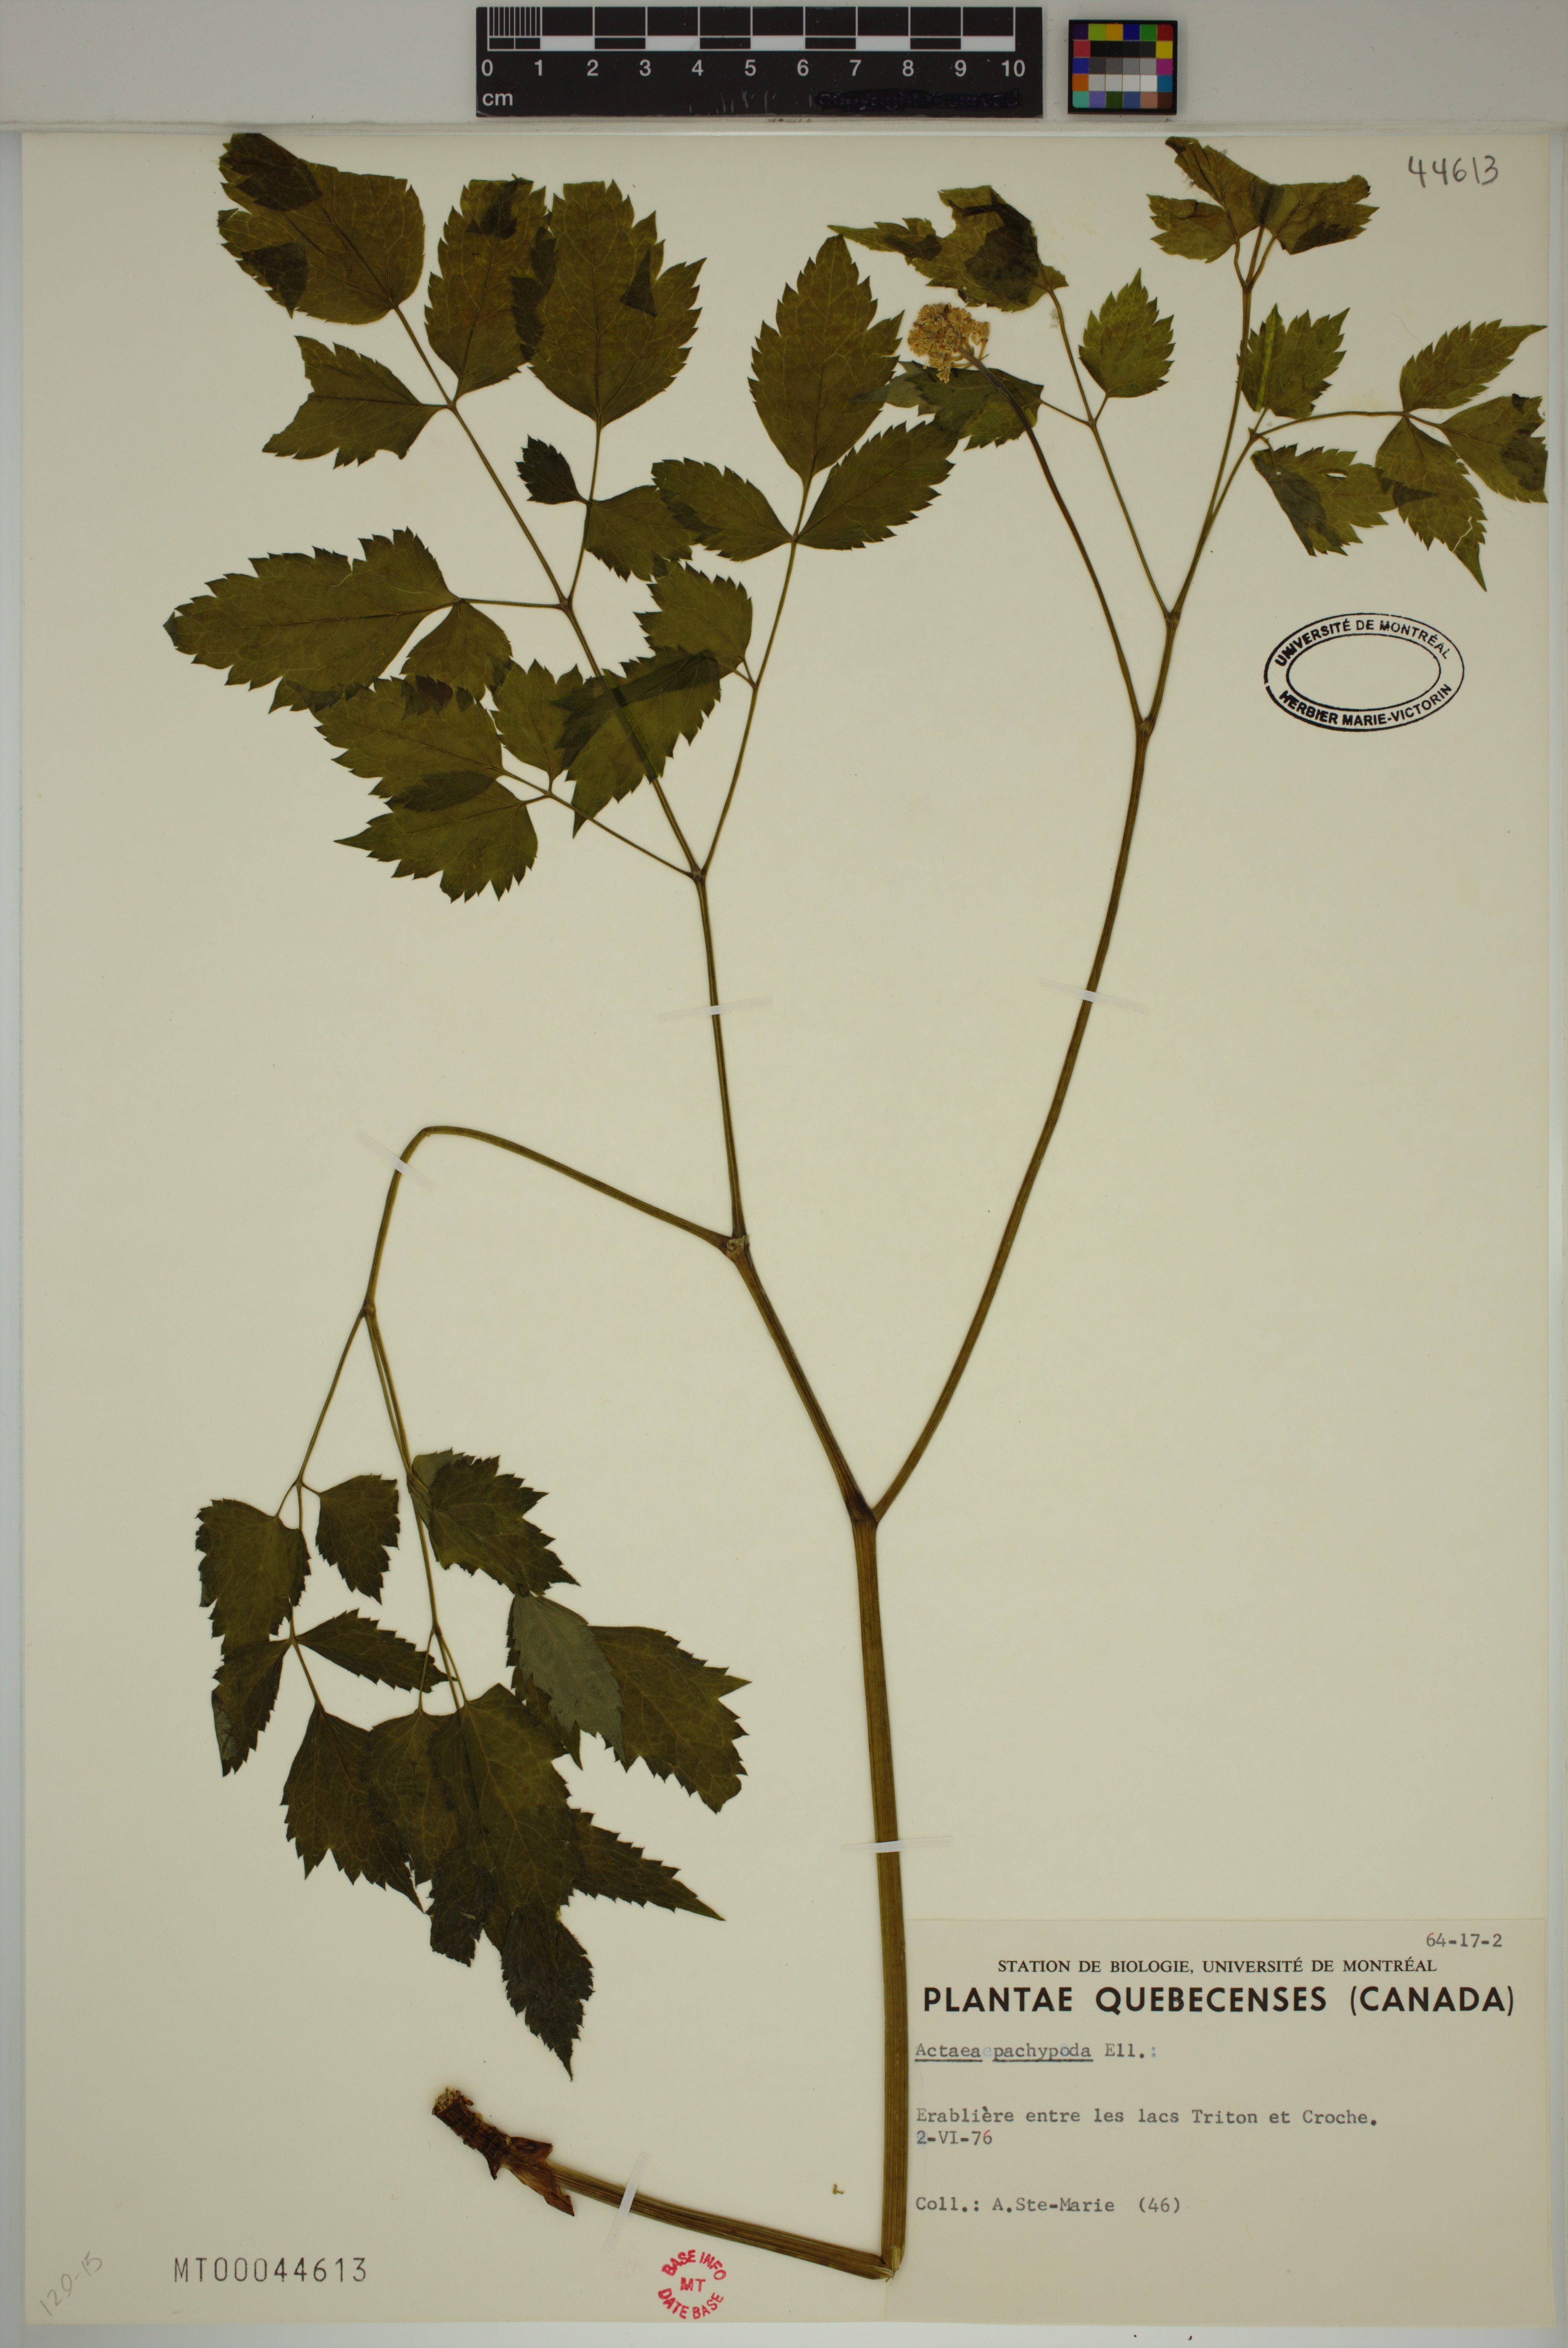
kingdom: Plantae
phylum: Tracheophyta
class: Magnoliopsida
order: Ranunculales
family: Ranunculaceae
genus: Actaea
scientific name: Actaea pachypoda
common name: Doll's-eyes
